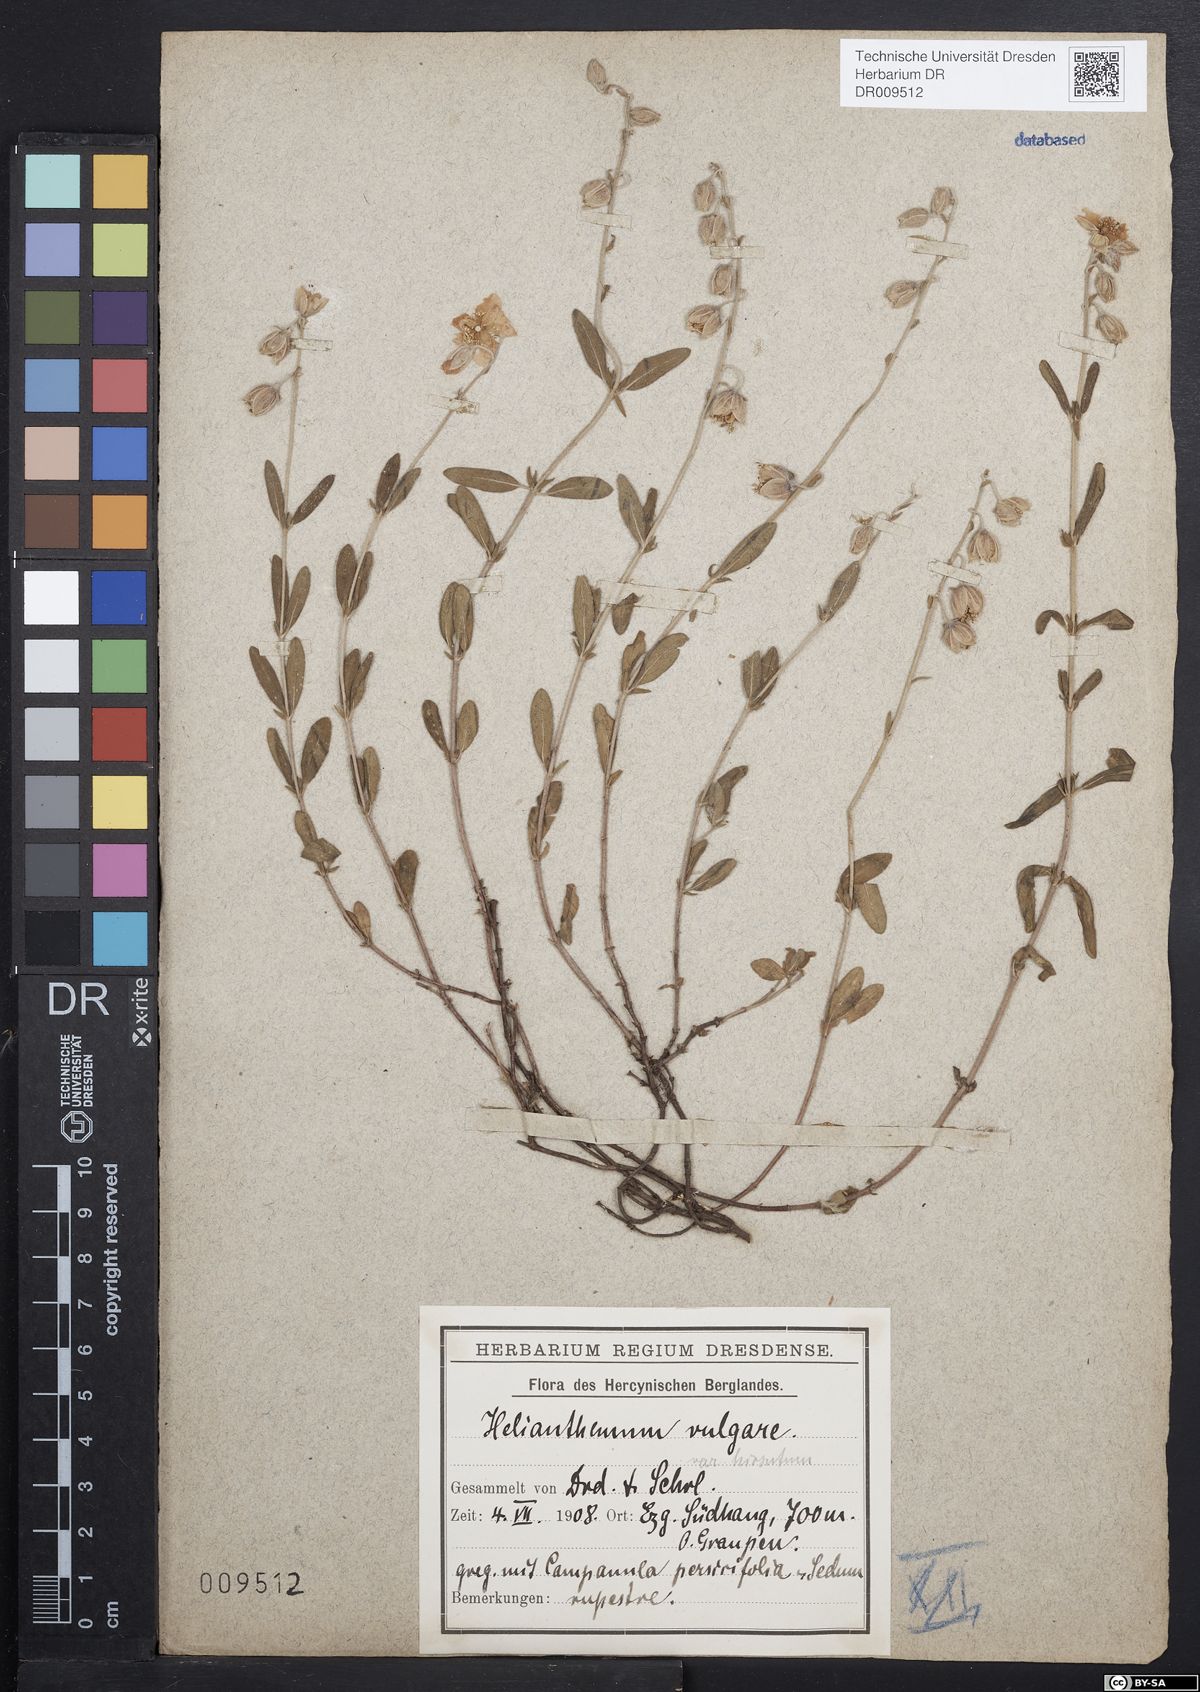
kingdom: Plantae
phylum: Tracheophyta
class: Magnoliopsida
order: Malvales
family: Cistaceae
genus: Helianthemum
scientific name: Helianthemum nummularium
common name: Common rock-rose
